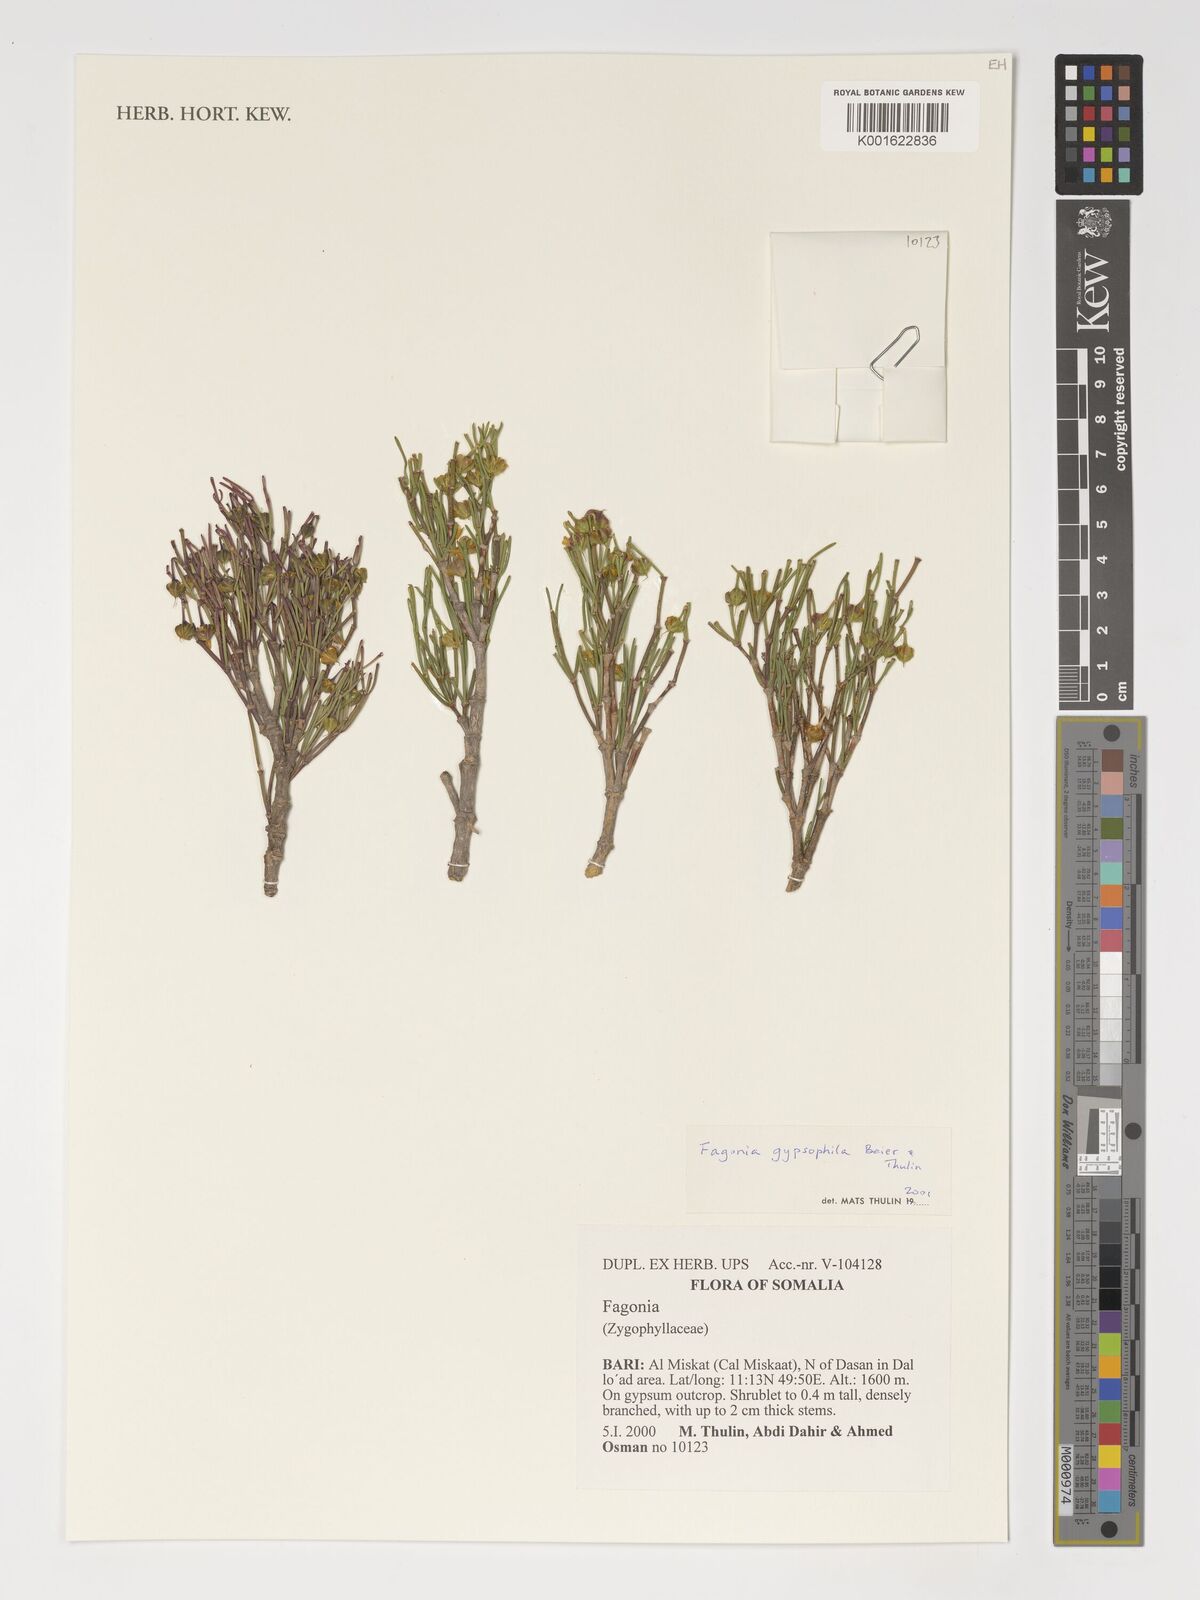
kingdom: Plantae
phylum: Tracheophyta
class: Magnoliopsida
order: Zygophyllales
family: Zygophyllaceae
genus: Fagonia
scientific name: Fagonia gypsophila
